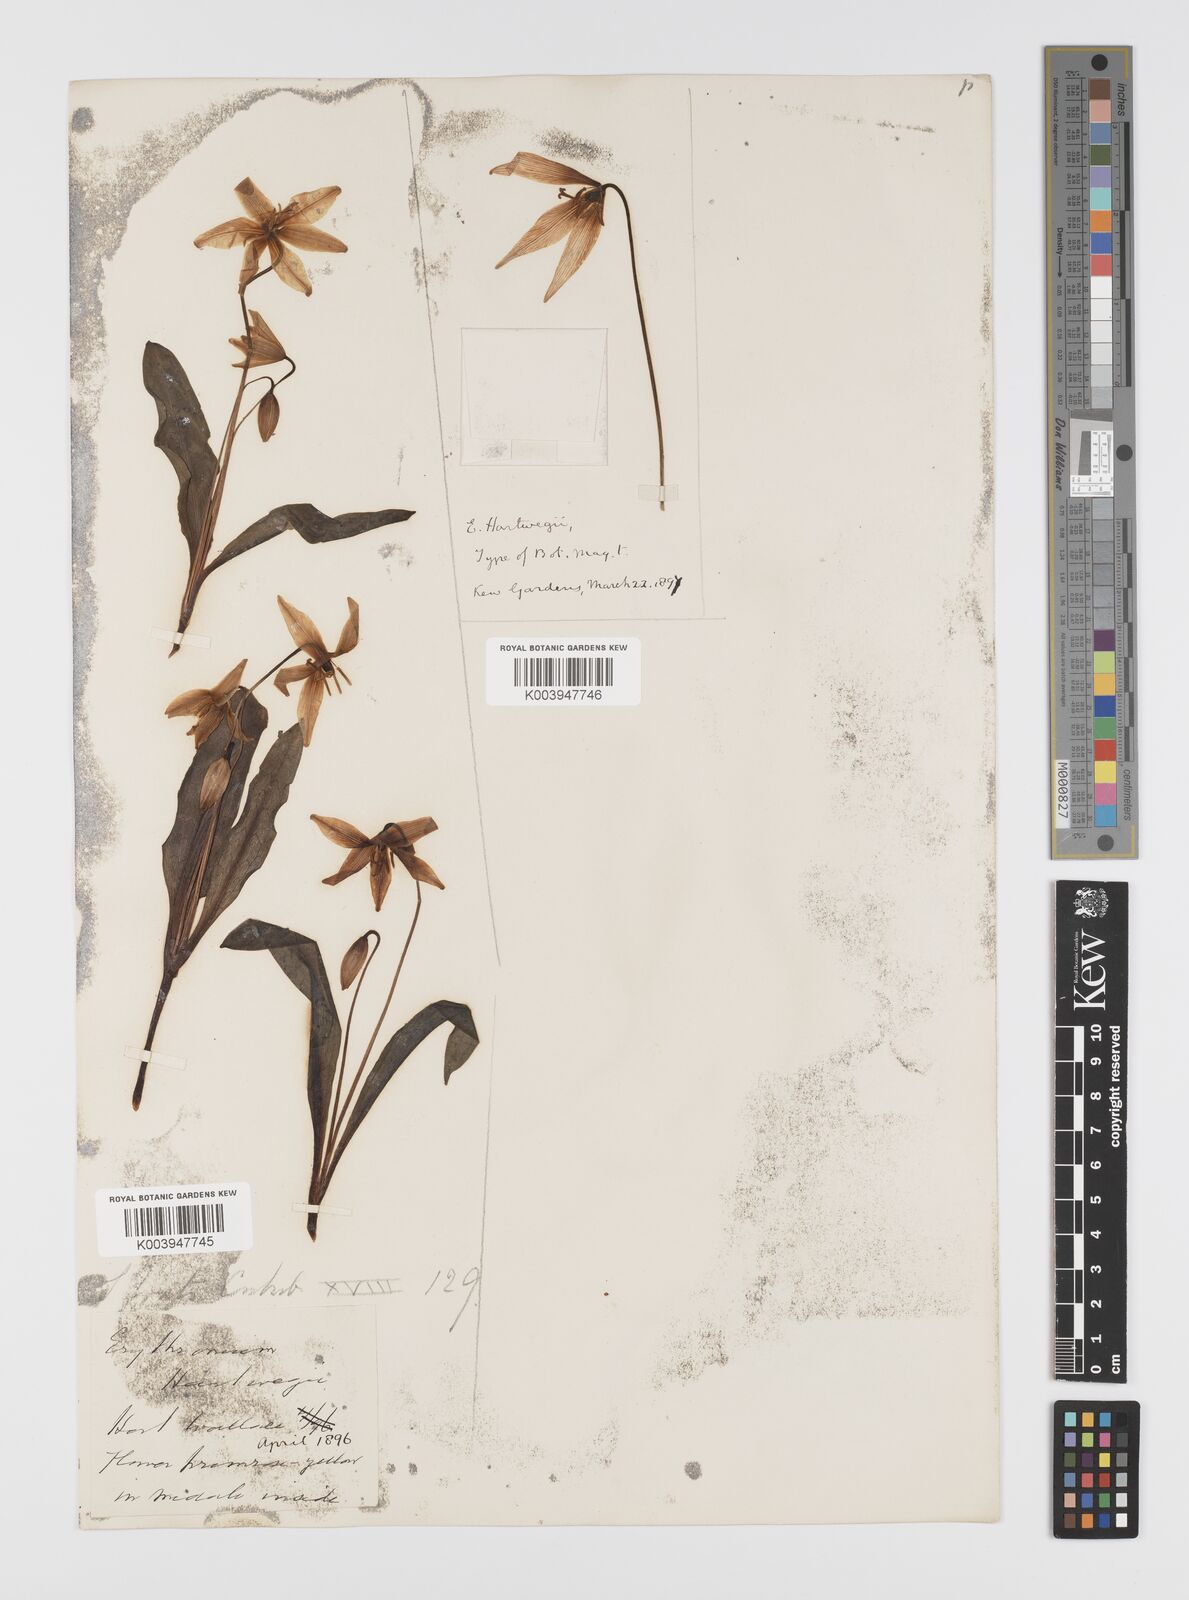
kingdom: Plantae
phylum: Tracheophyta
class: Liliopsida
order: Liliales
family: Liliaceae
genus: Erythronium
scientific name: Erythronium multiscapideum
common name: Sierra foothills fawn-lily
